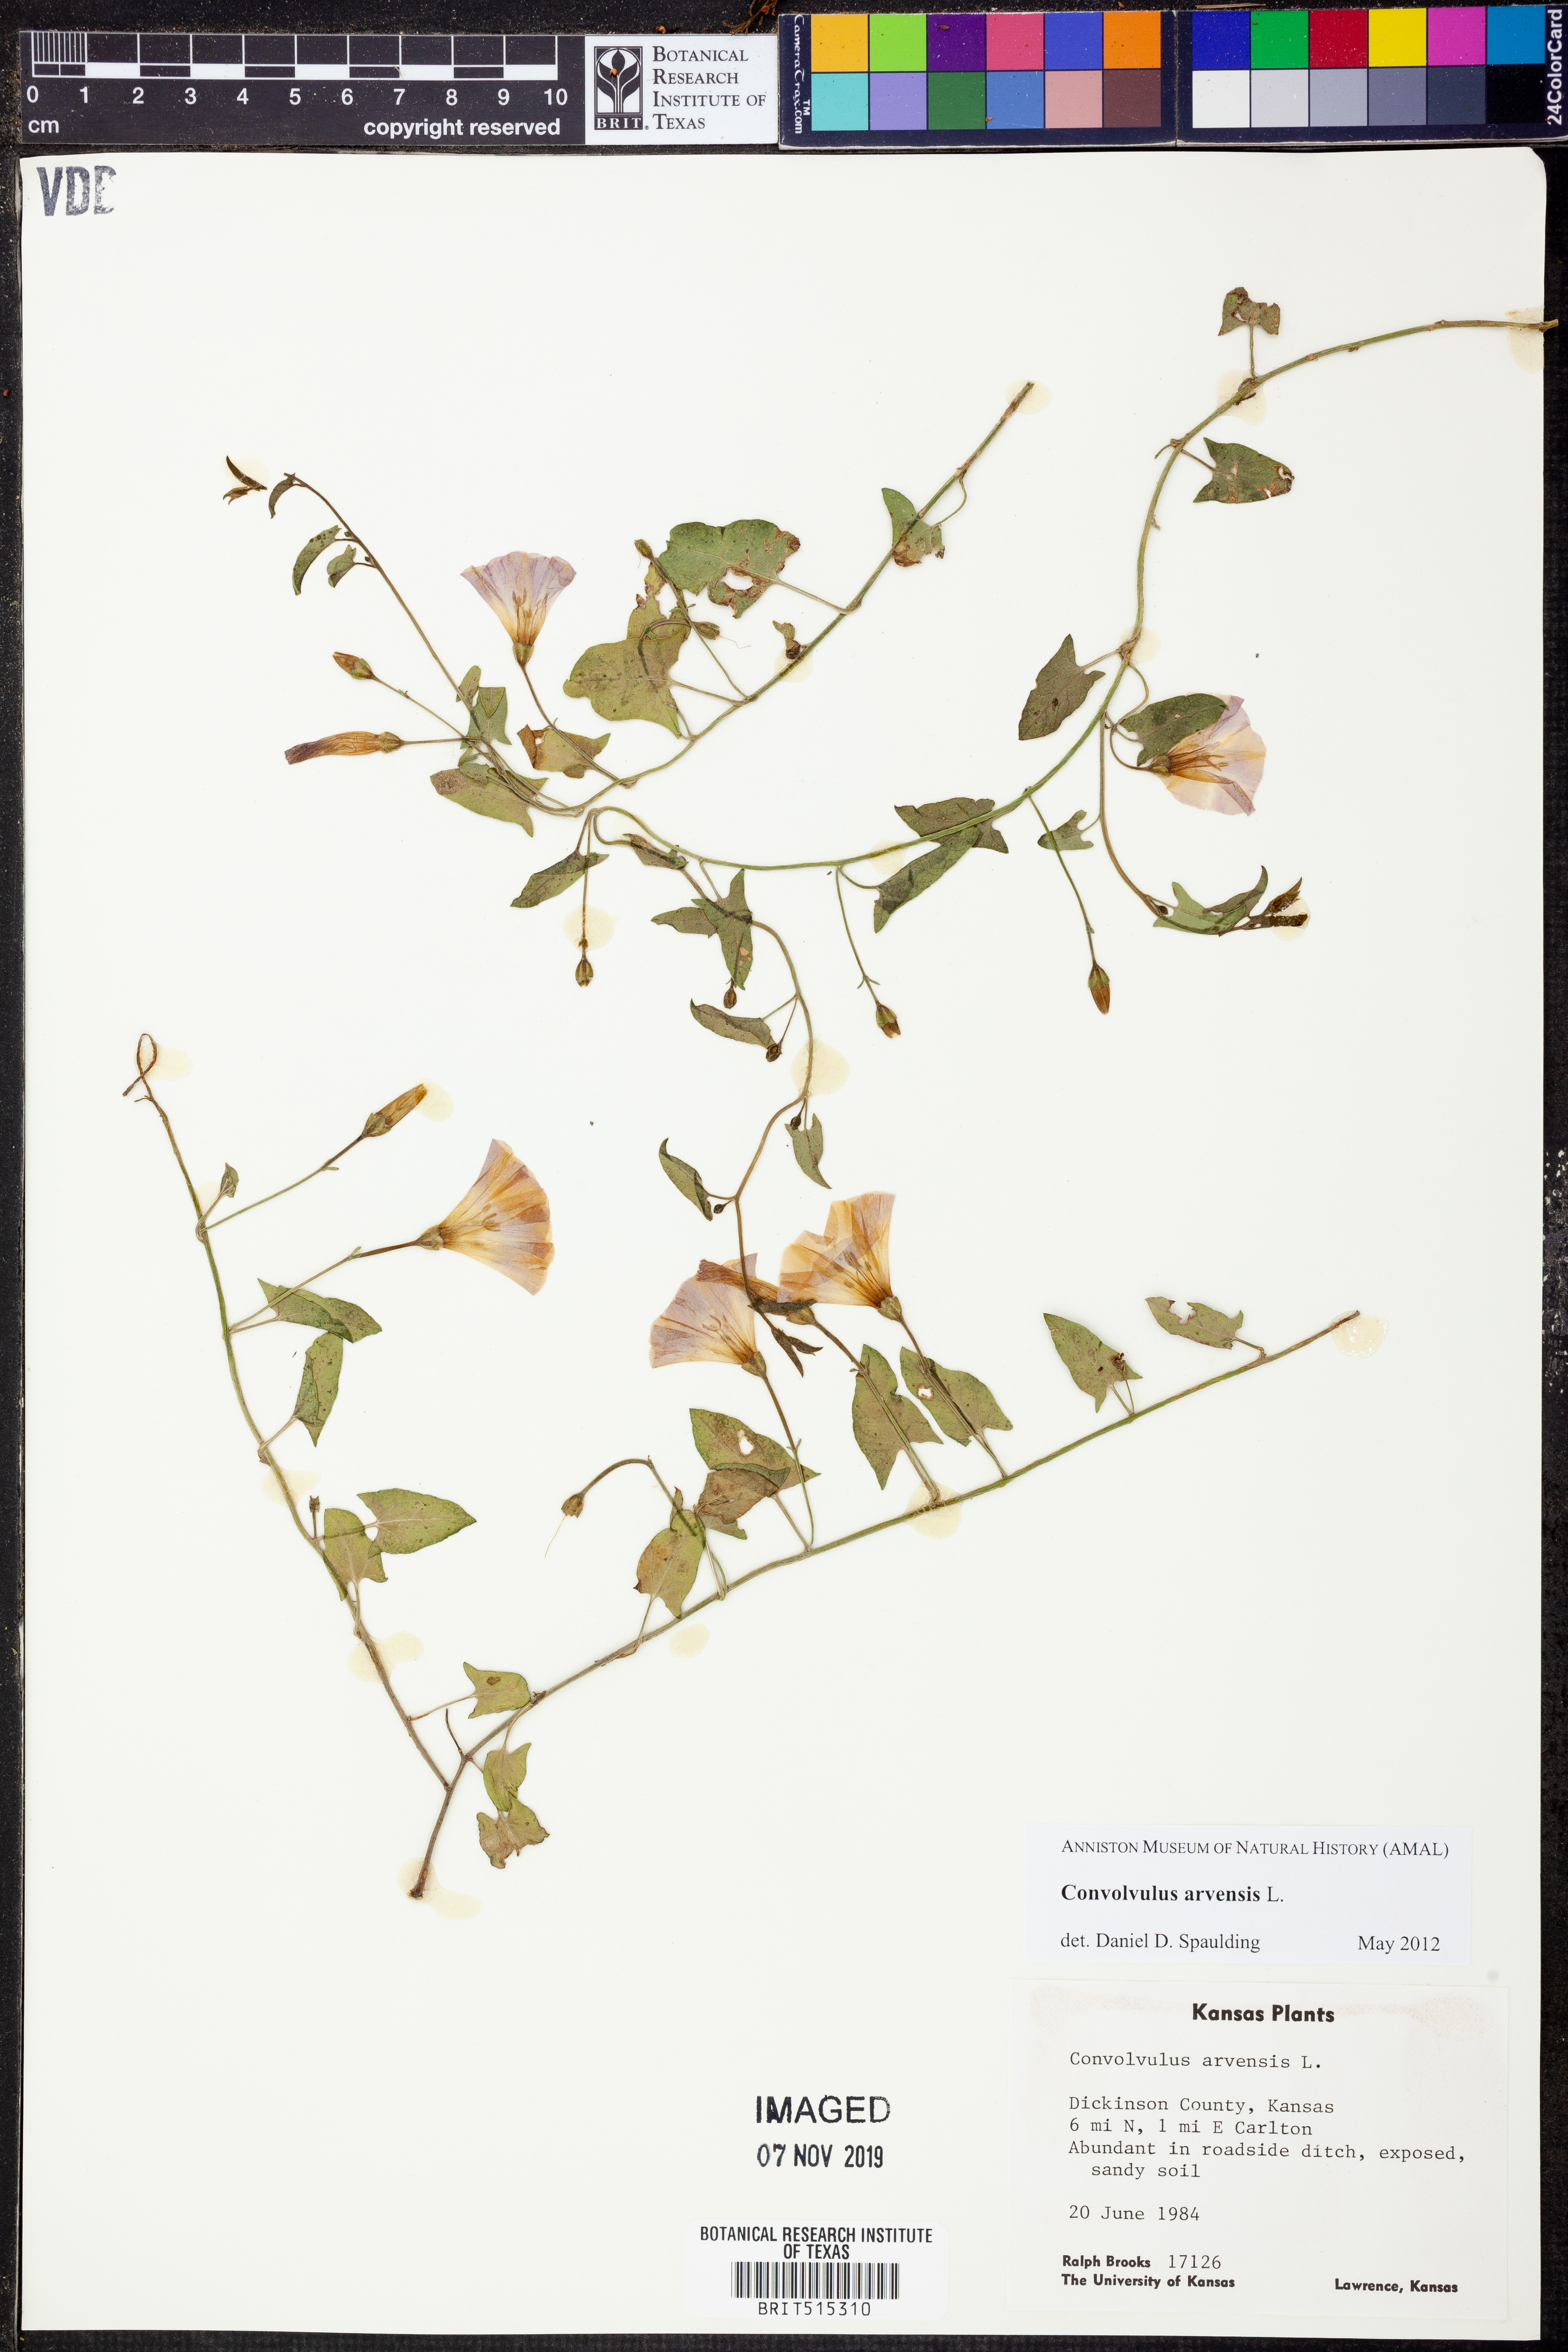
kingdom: Plantae
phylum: Tracheophyta
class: Magnoliopsida
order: Solanales
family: Convolvulaceae
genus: Convolvulus
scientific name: Convolvulus arvensis
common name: Field bindweed
